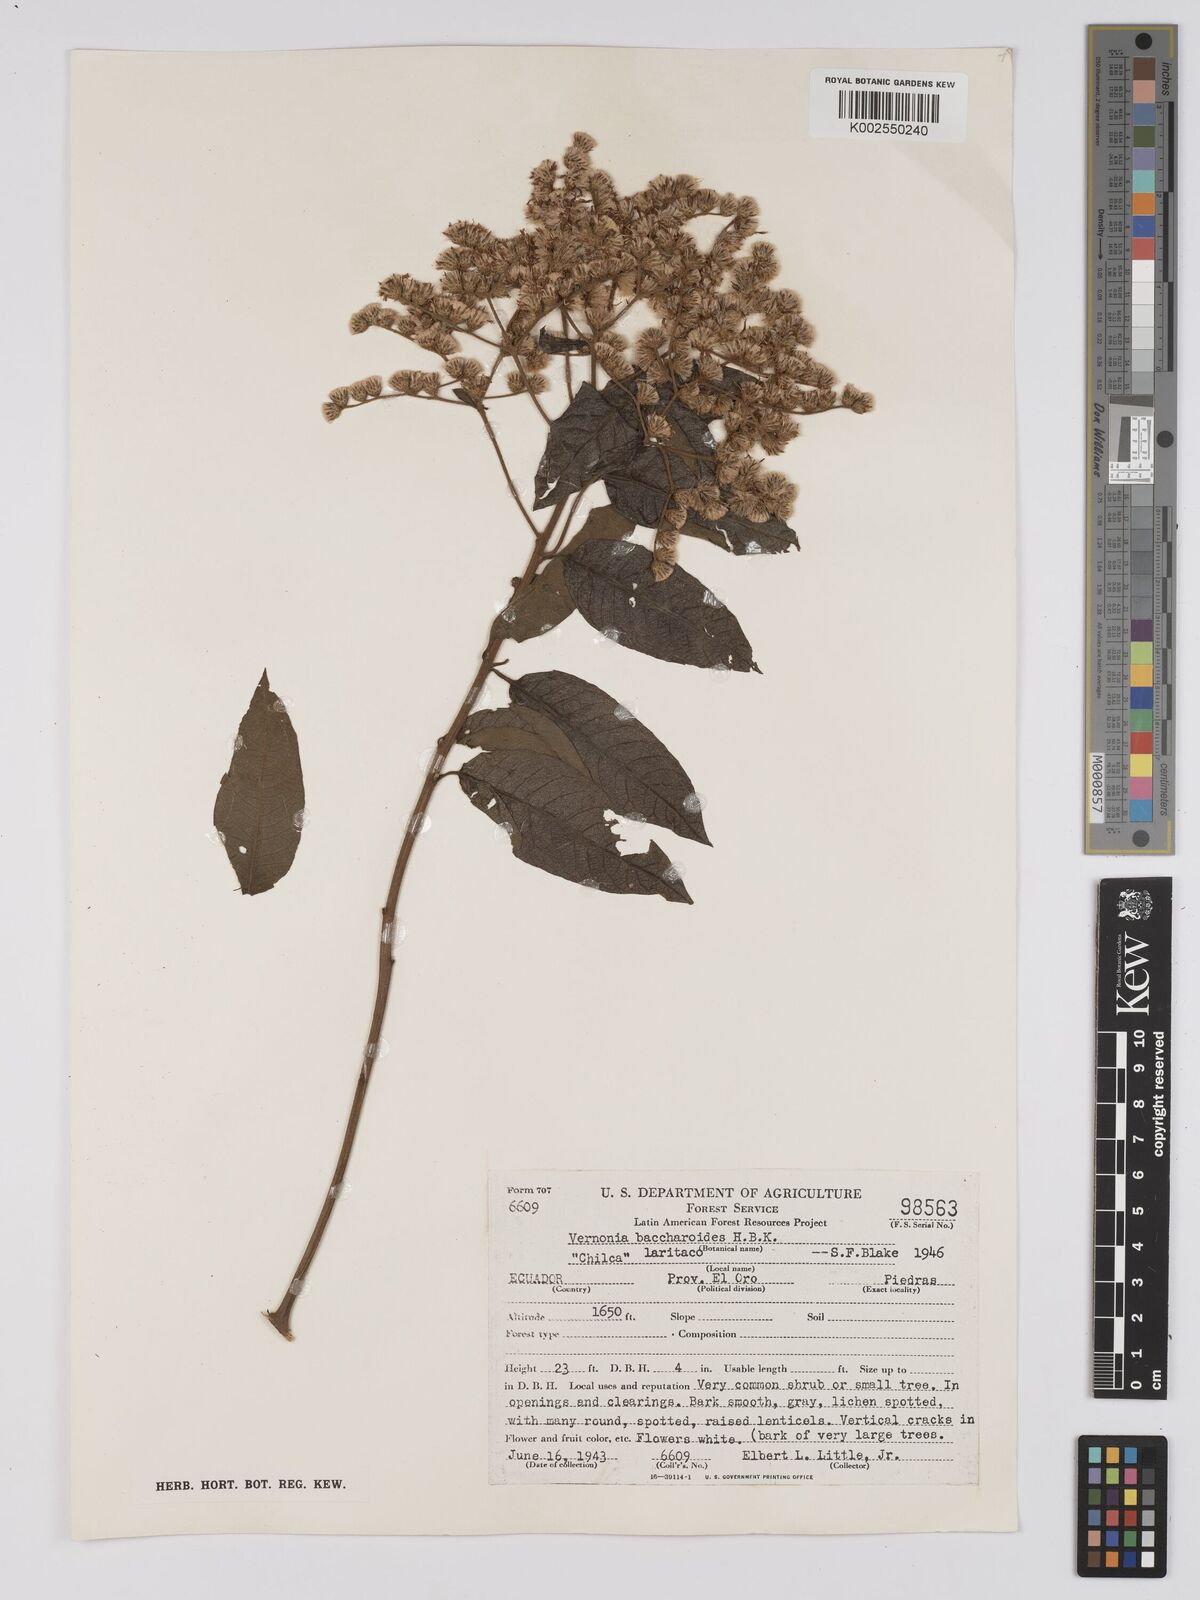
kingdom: Plantae
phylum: Tracheophyta
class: Magnoliopsida
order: Asterales
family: Asteraceae
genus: Vernonanthura
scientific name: Vernonanthura patens
